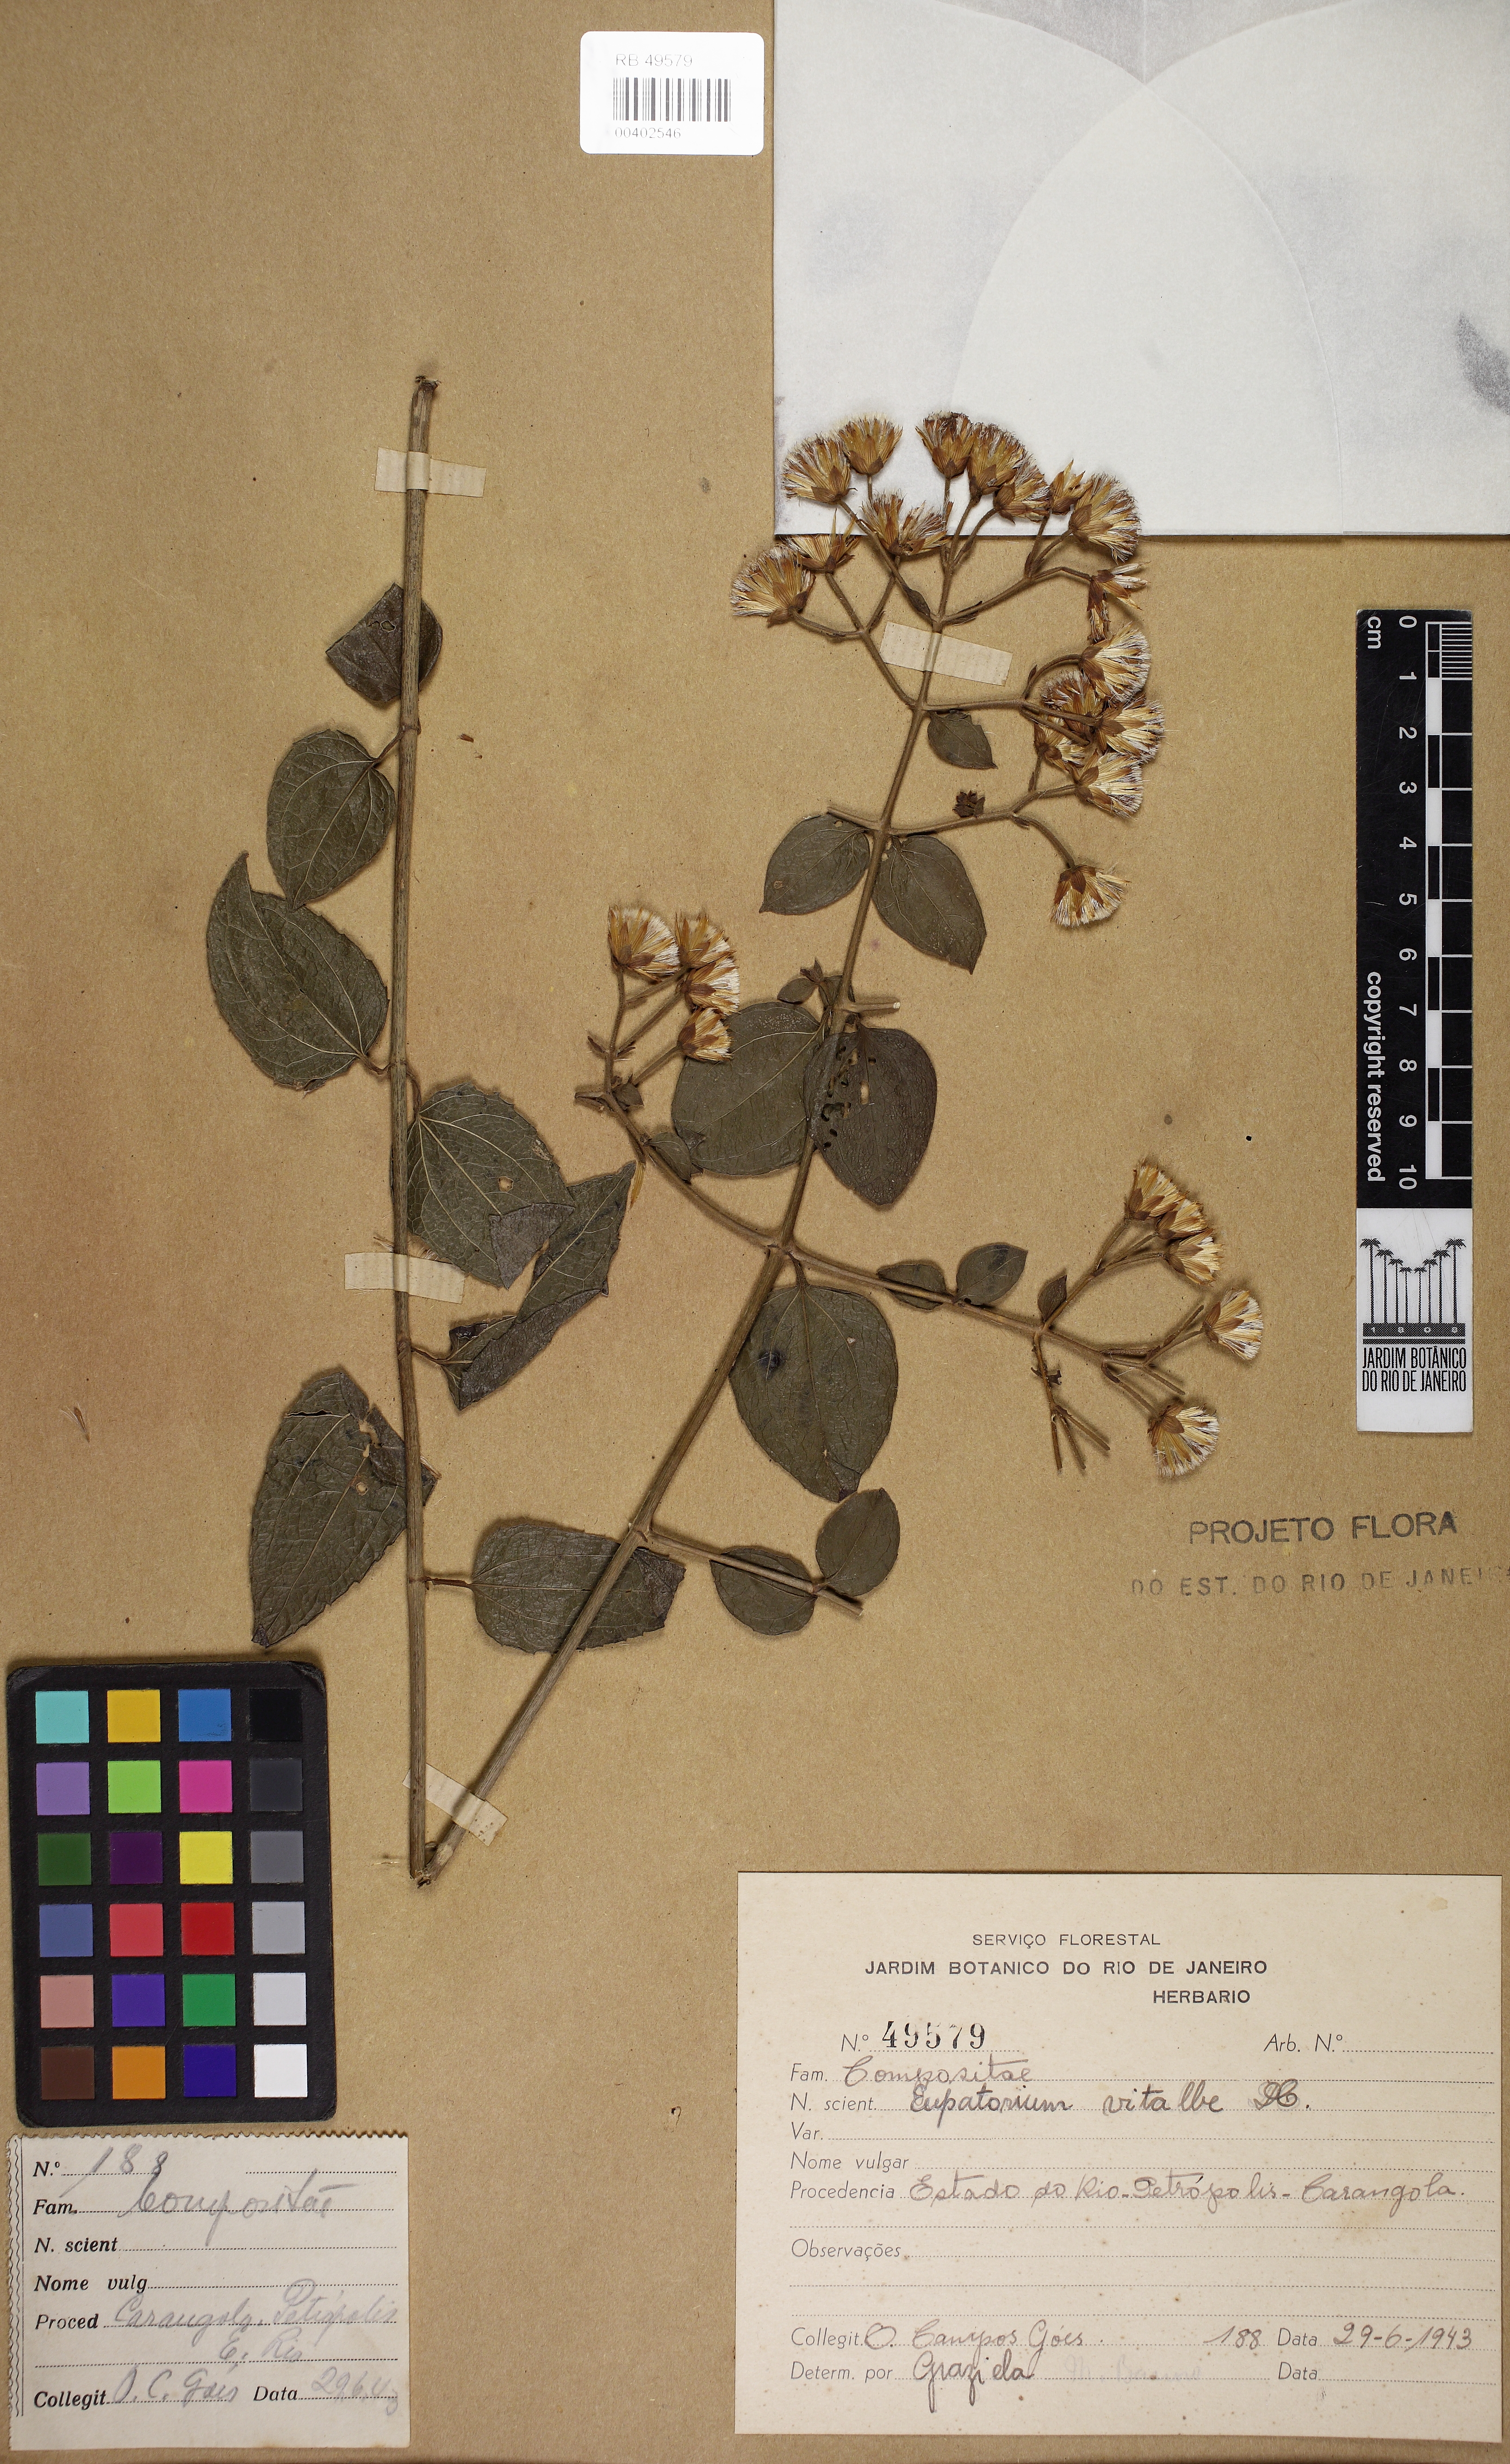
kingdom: Plantae
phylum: Tracheophyta
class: Magnoliopsida
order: Asterales
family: Asteraceae
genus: Heterocondylus
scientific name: Heterocondylus vitalbae
